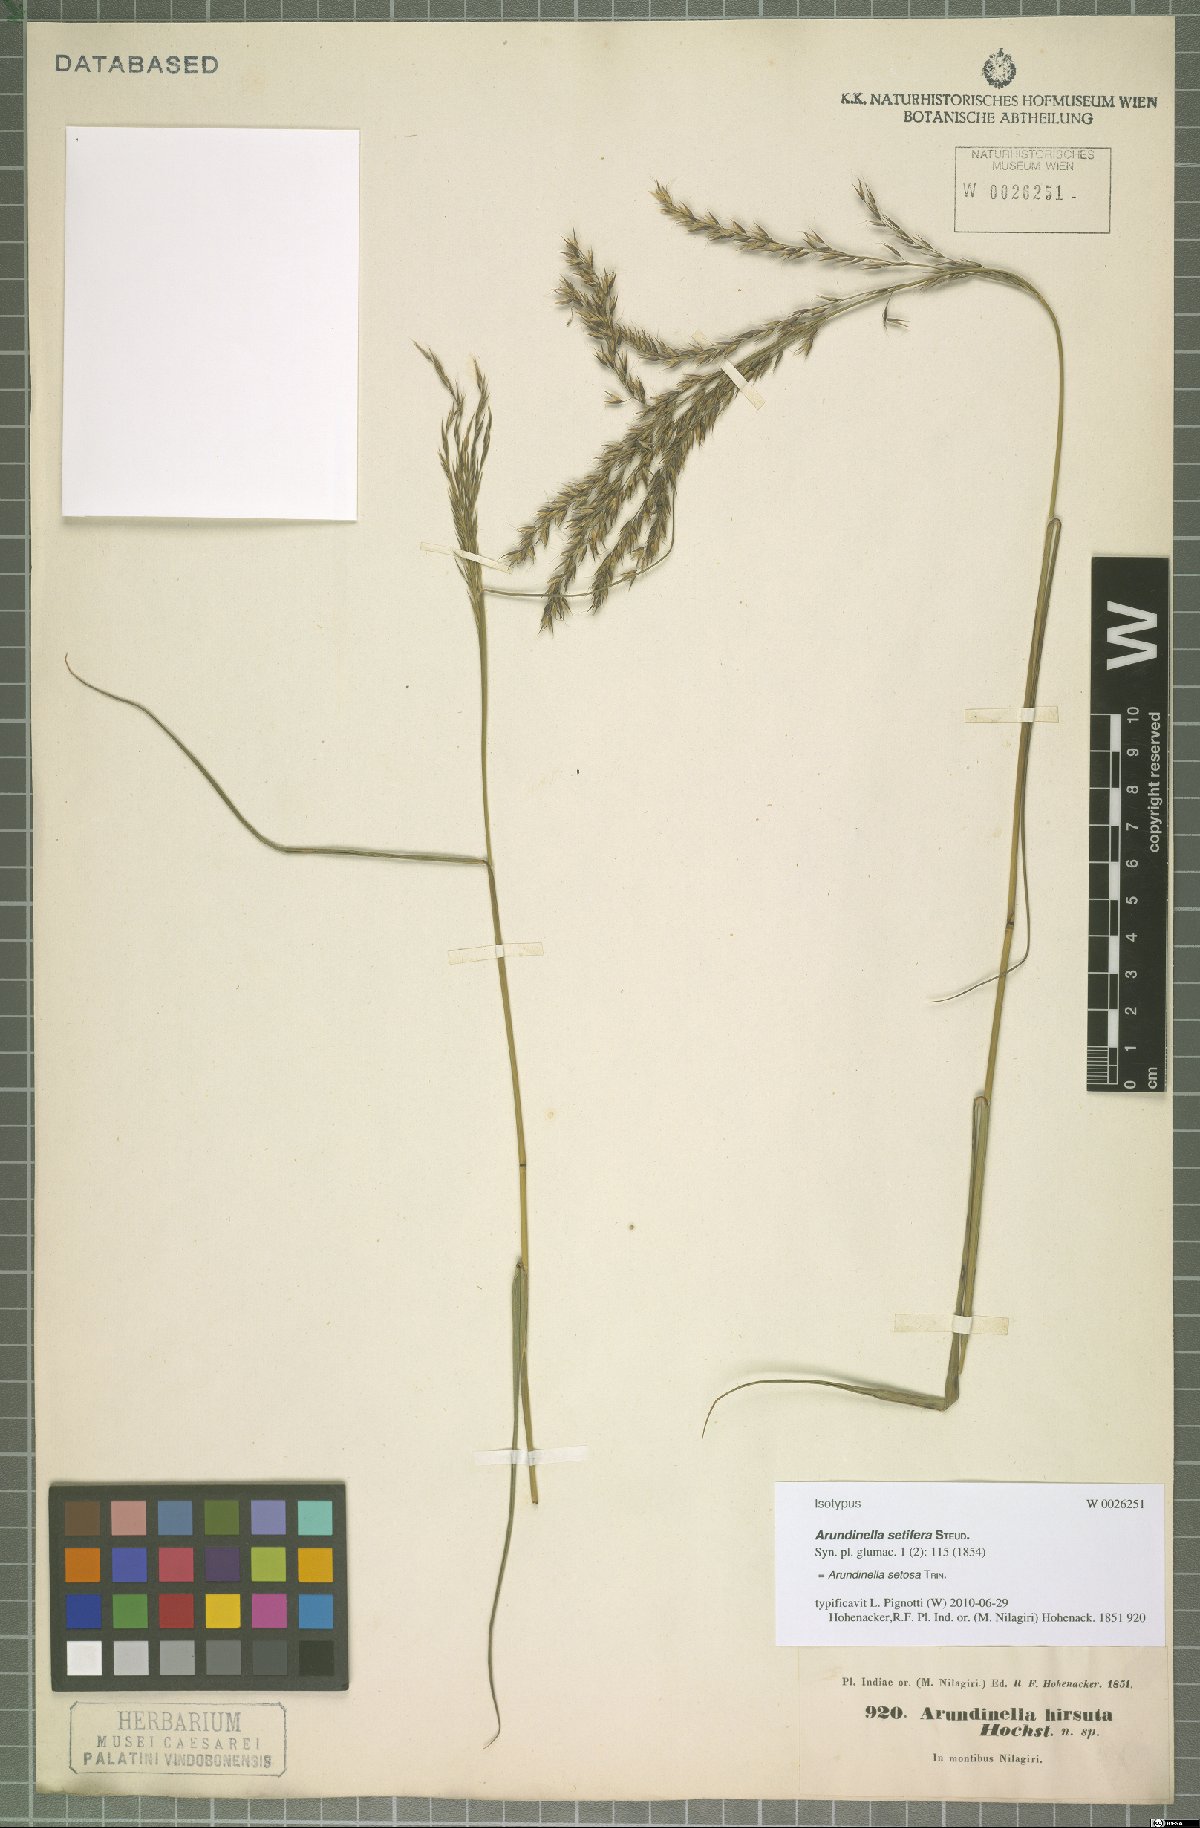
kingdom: Plantae
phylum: Tracheophyta
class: Liliopsida
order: Poales
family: Poaceae
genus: Arundinella
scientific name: Arundinella setosa
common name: Reed grass
